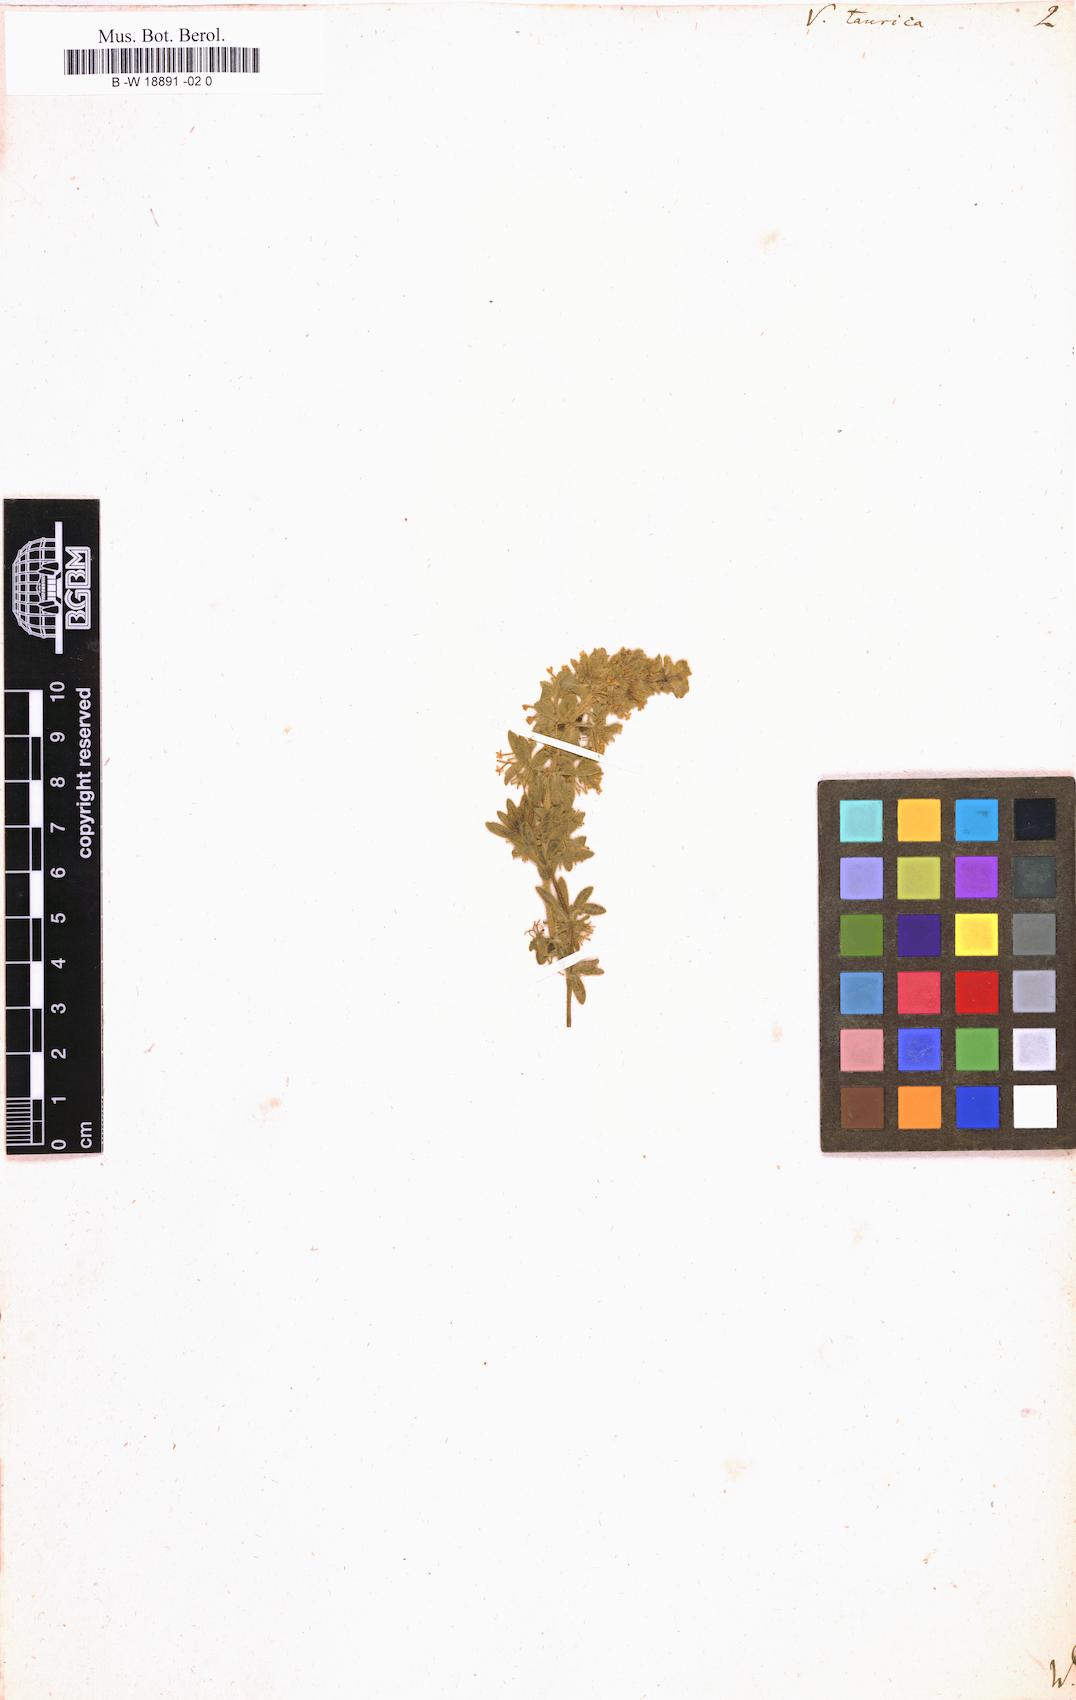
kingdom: Plantae
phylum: Tracheophyta
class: Magnoliopsida
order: Gentianales
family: Rubiaceae
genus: Cruciata
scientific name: Cruciata taurica
